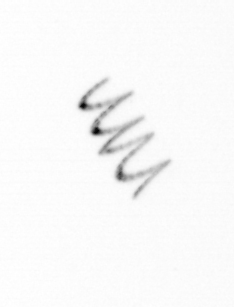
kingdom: Chromista
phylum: Ochrophyta
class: Bacillariophyceae
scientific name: Bacillariophyceae
